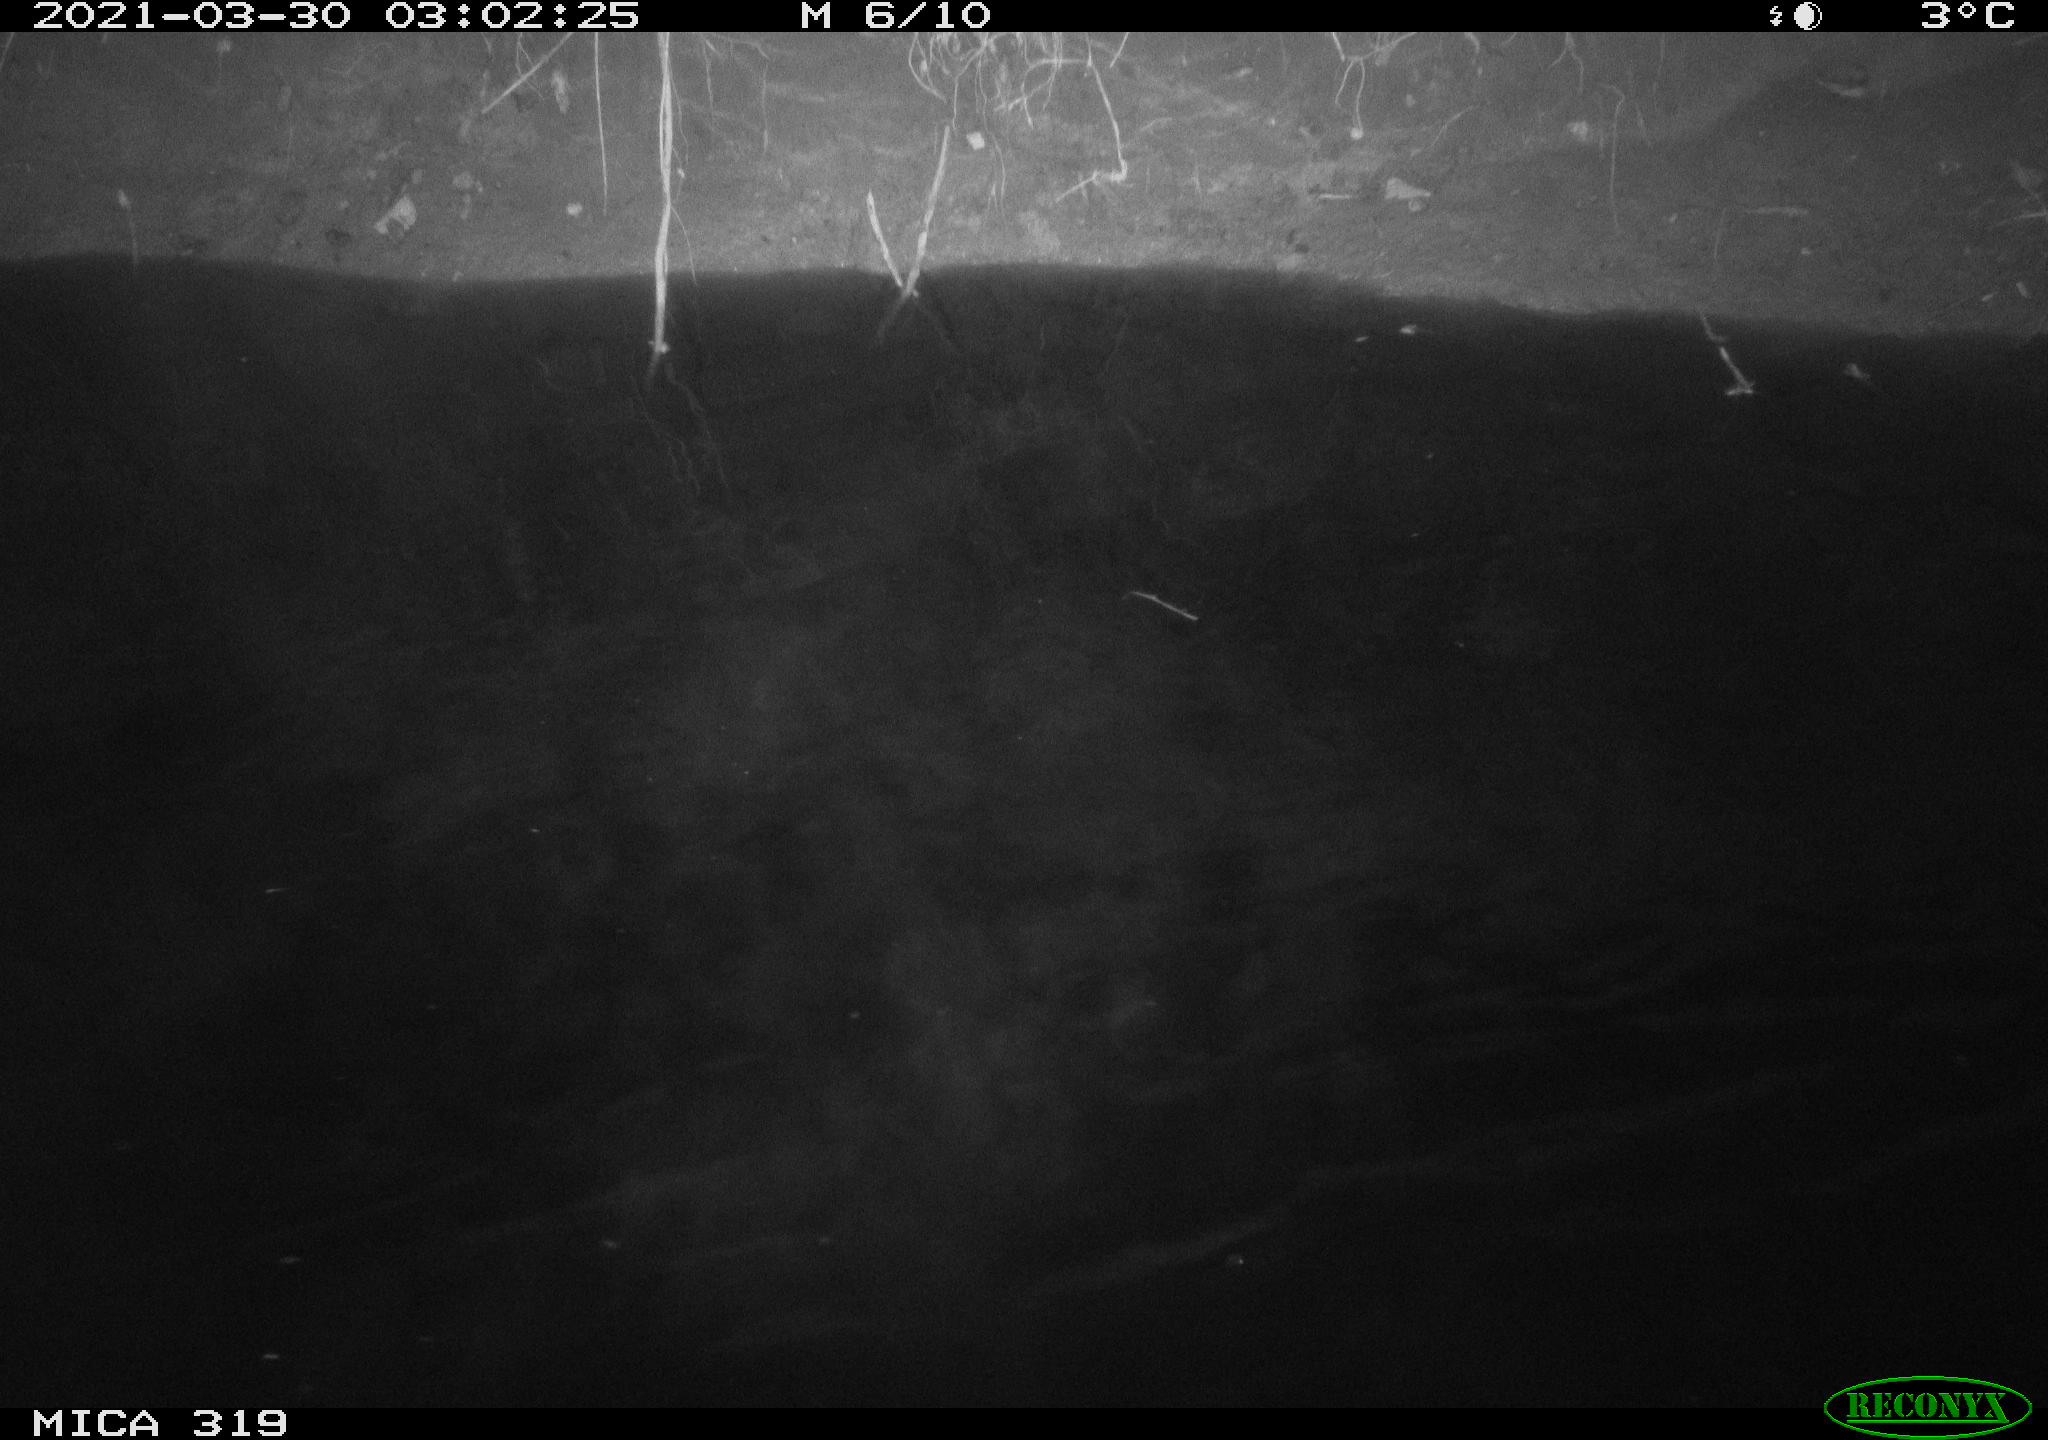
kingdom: Animalia
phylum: Chordata
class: Aves
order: Anseriformes
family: Anatidae
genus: Anas
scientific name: Anas platyrhynchos
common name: Mallard
